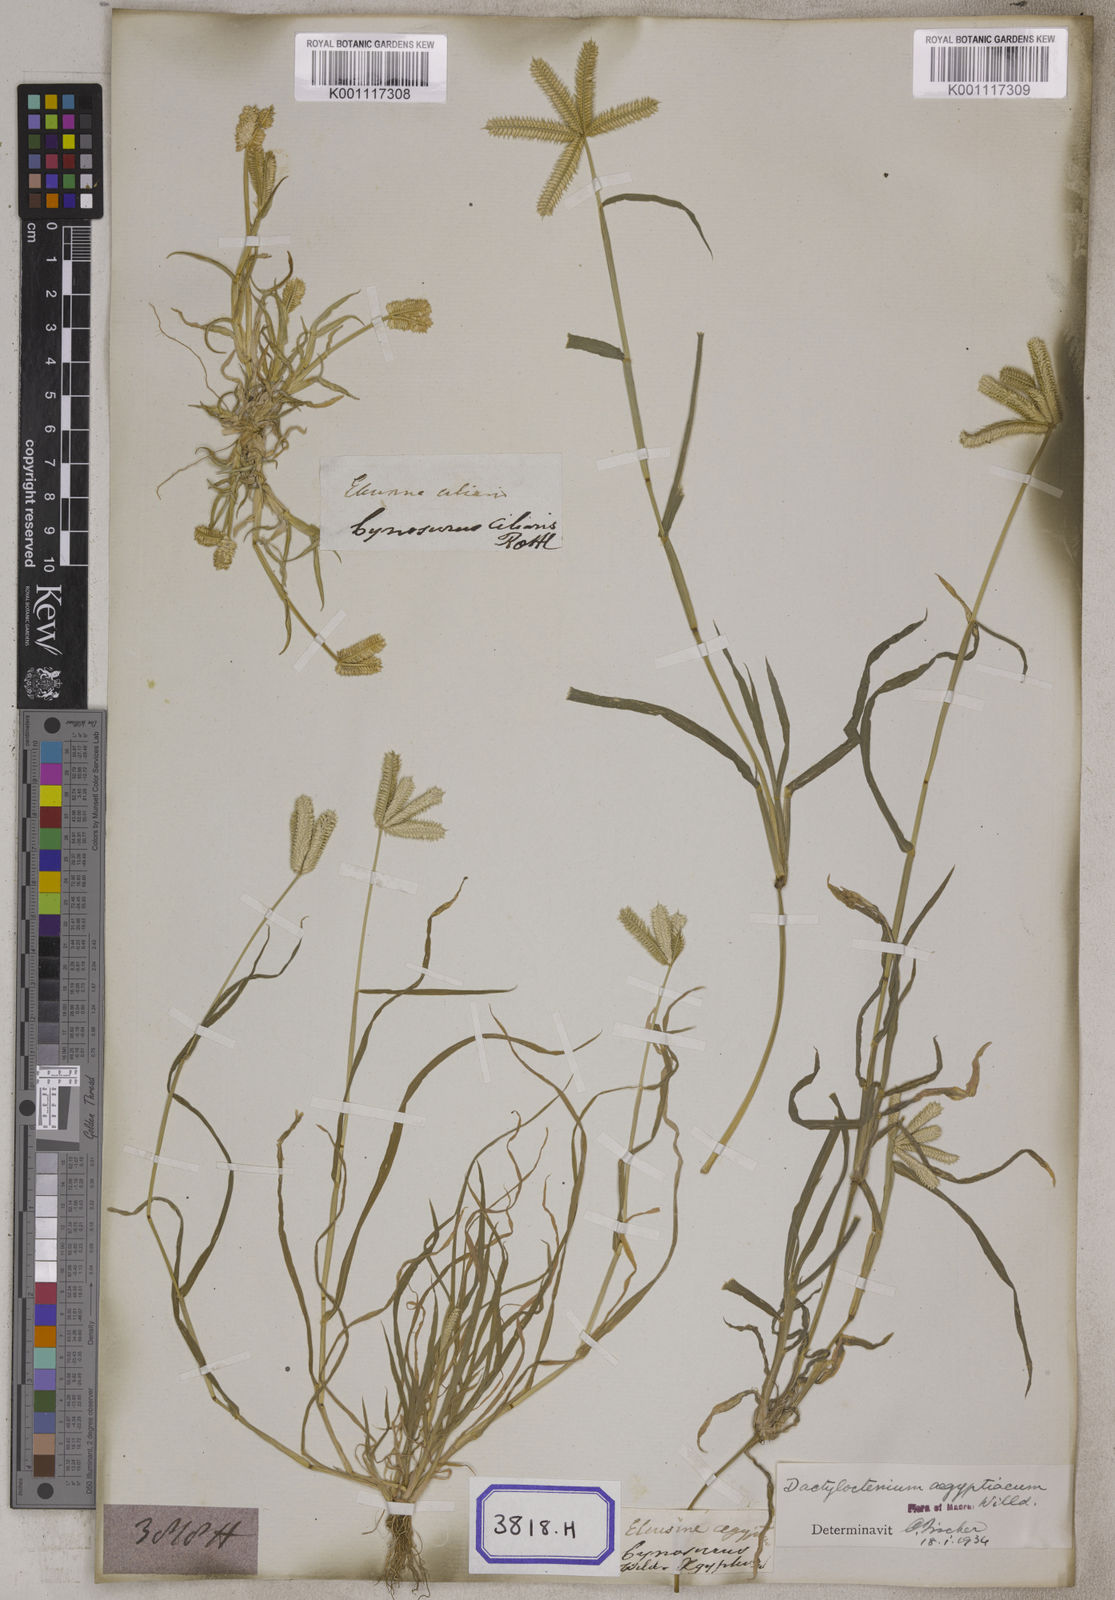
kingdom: Plantae
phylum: Tracheophyta
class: Liliopsida
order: Poales
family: Poaceae
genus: Eleusine
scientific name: Eleusine
